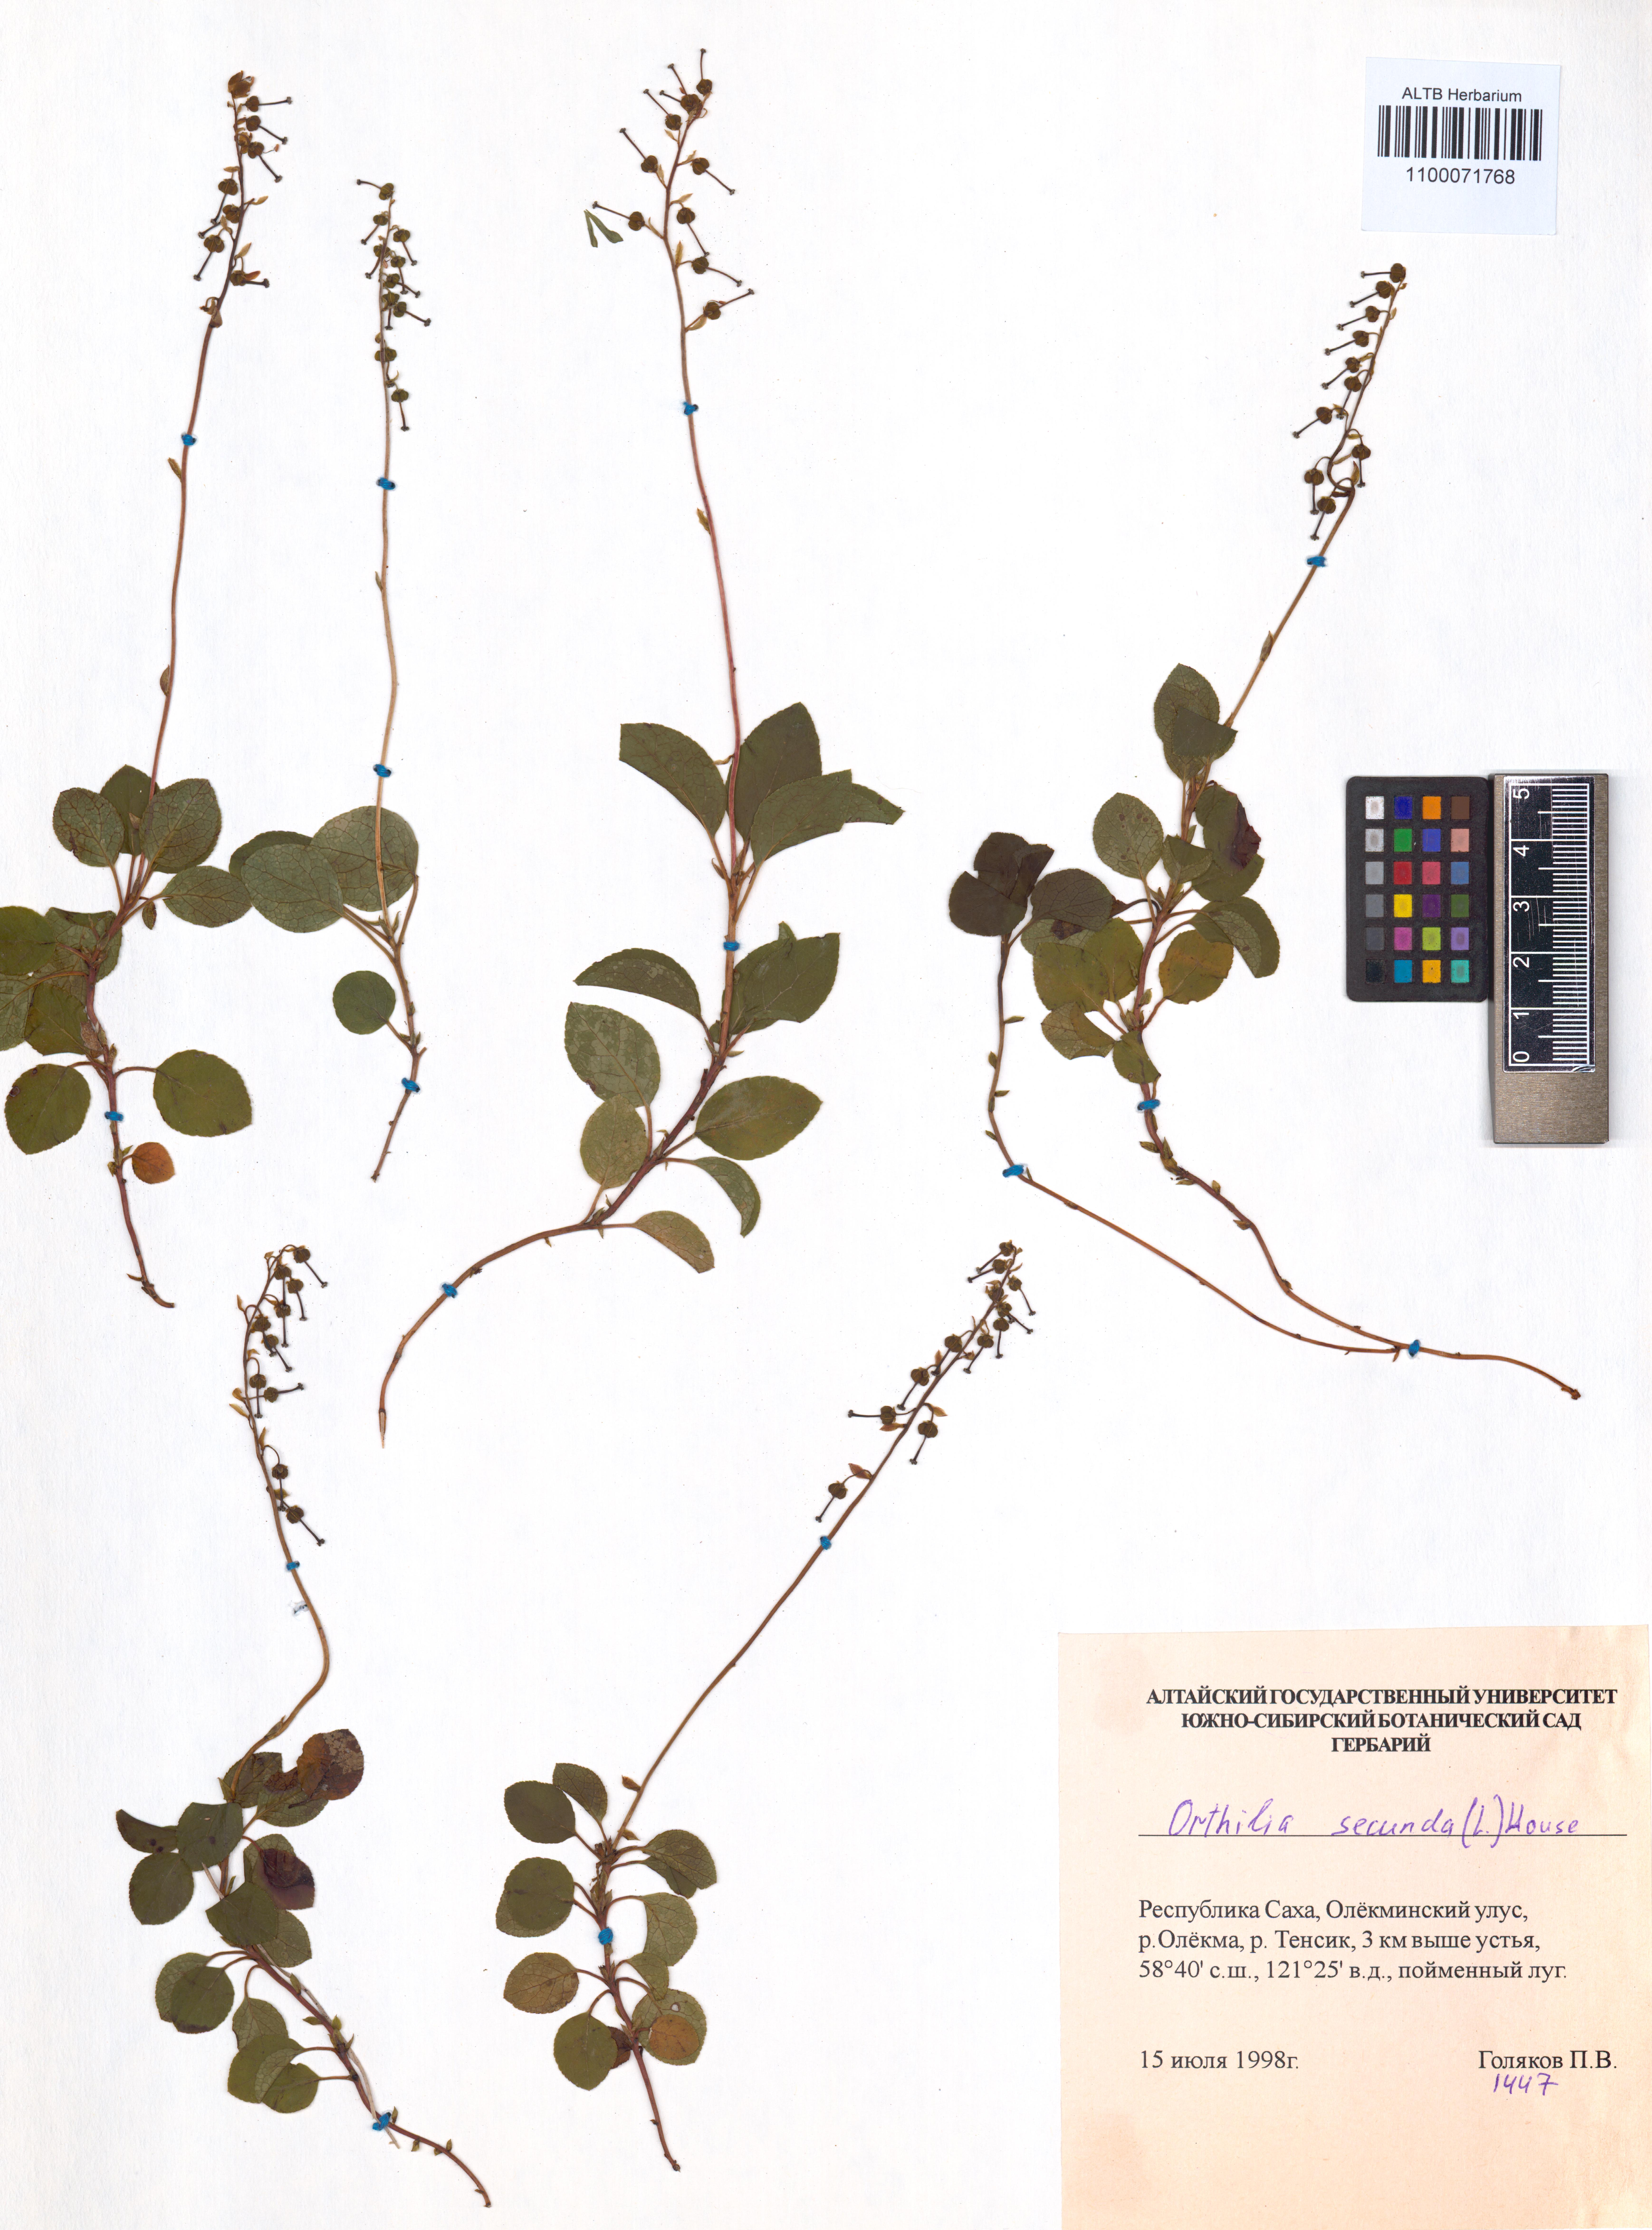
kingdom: Plantae
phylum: Tracheophyta
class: Magnoliopsida
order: Ericales
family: Ericaceae
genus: Orthilia
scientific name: Orthilia secunda
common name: One-sided orthilia
